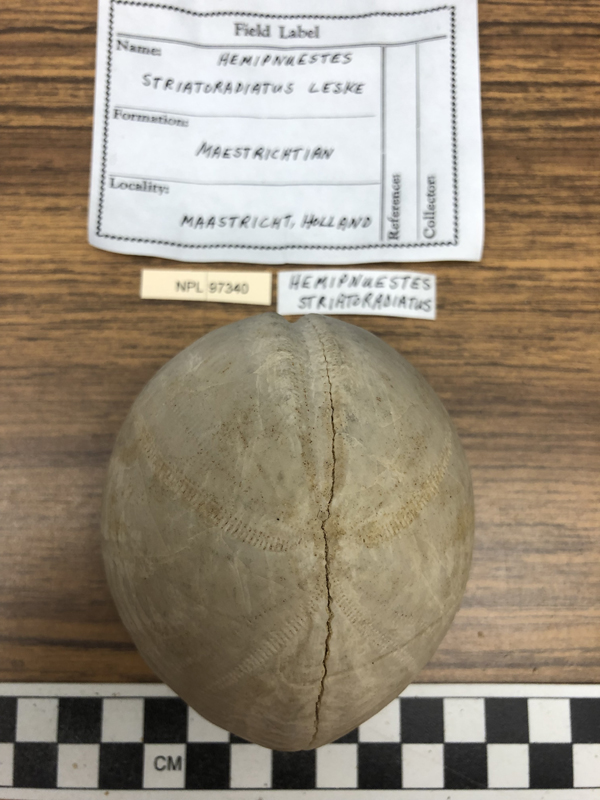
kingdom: Animalia
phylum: Echinodermata
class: Echinoidea
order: Holasteroida
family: Hemipneustidae
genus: Hemipneustes
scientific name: Hemipneustes striatoradiatus
